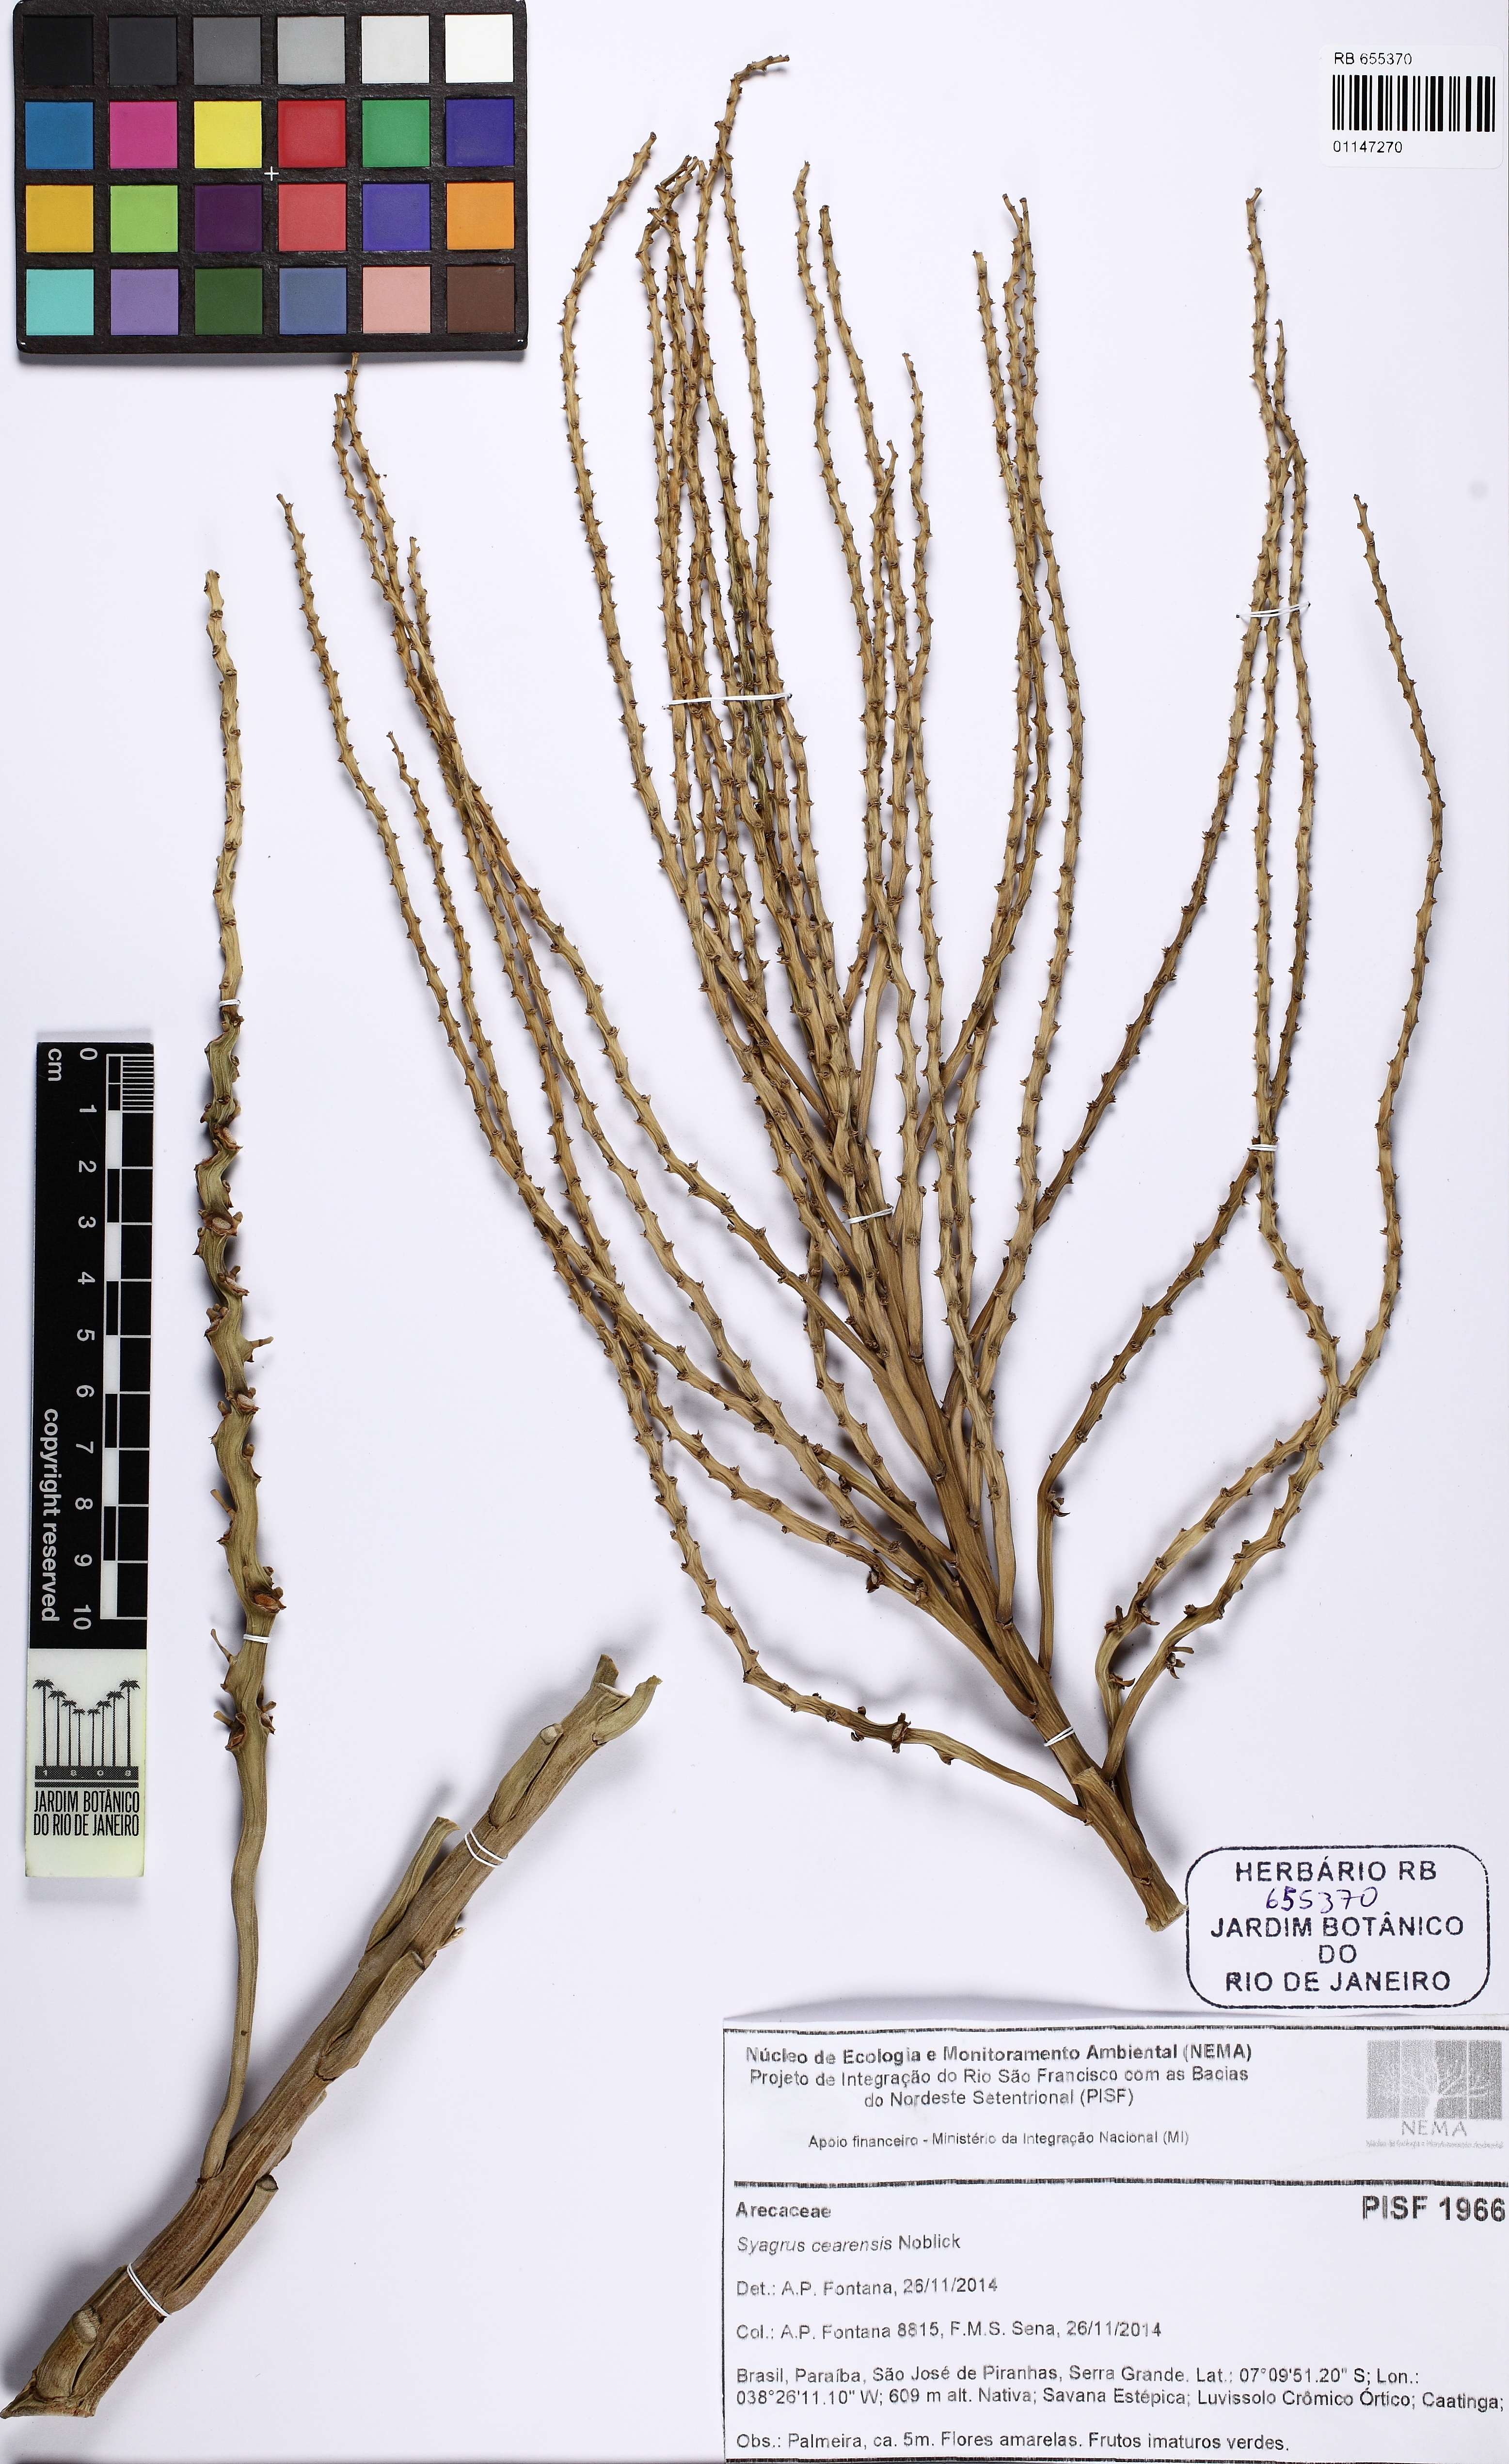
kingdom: Plantae
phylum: Tracheophyta
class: Liliopsida
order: Arecales
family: Arecaceae
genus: Syagrus
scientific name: Syagrus cearensis
